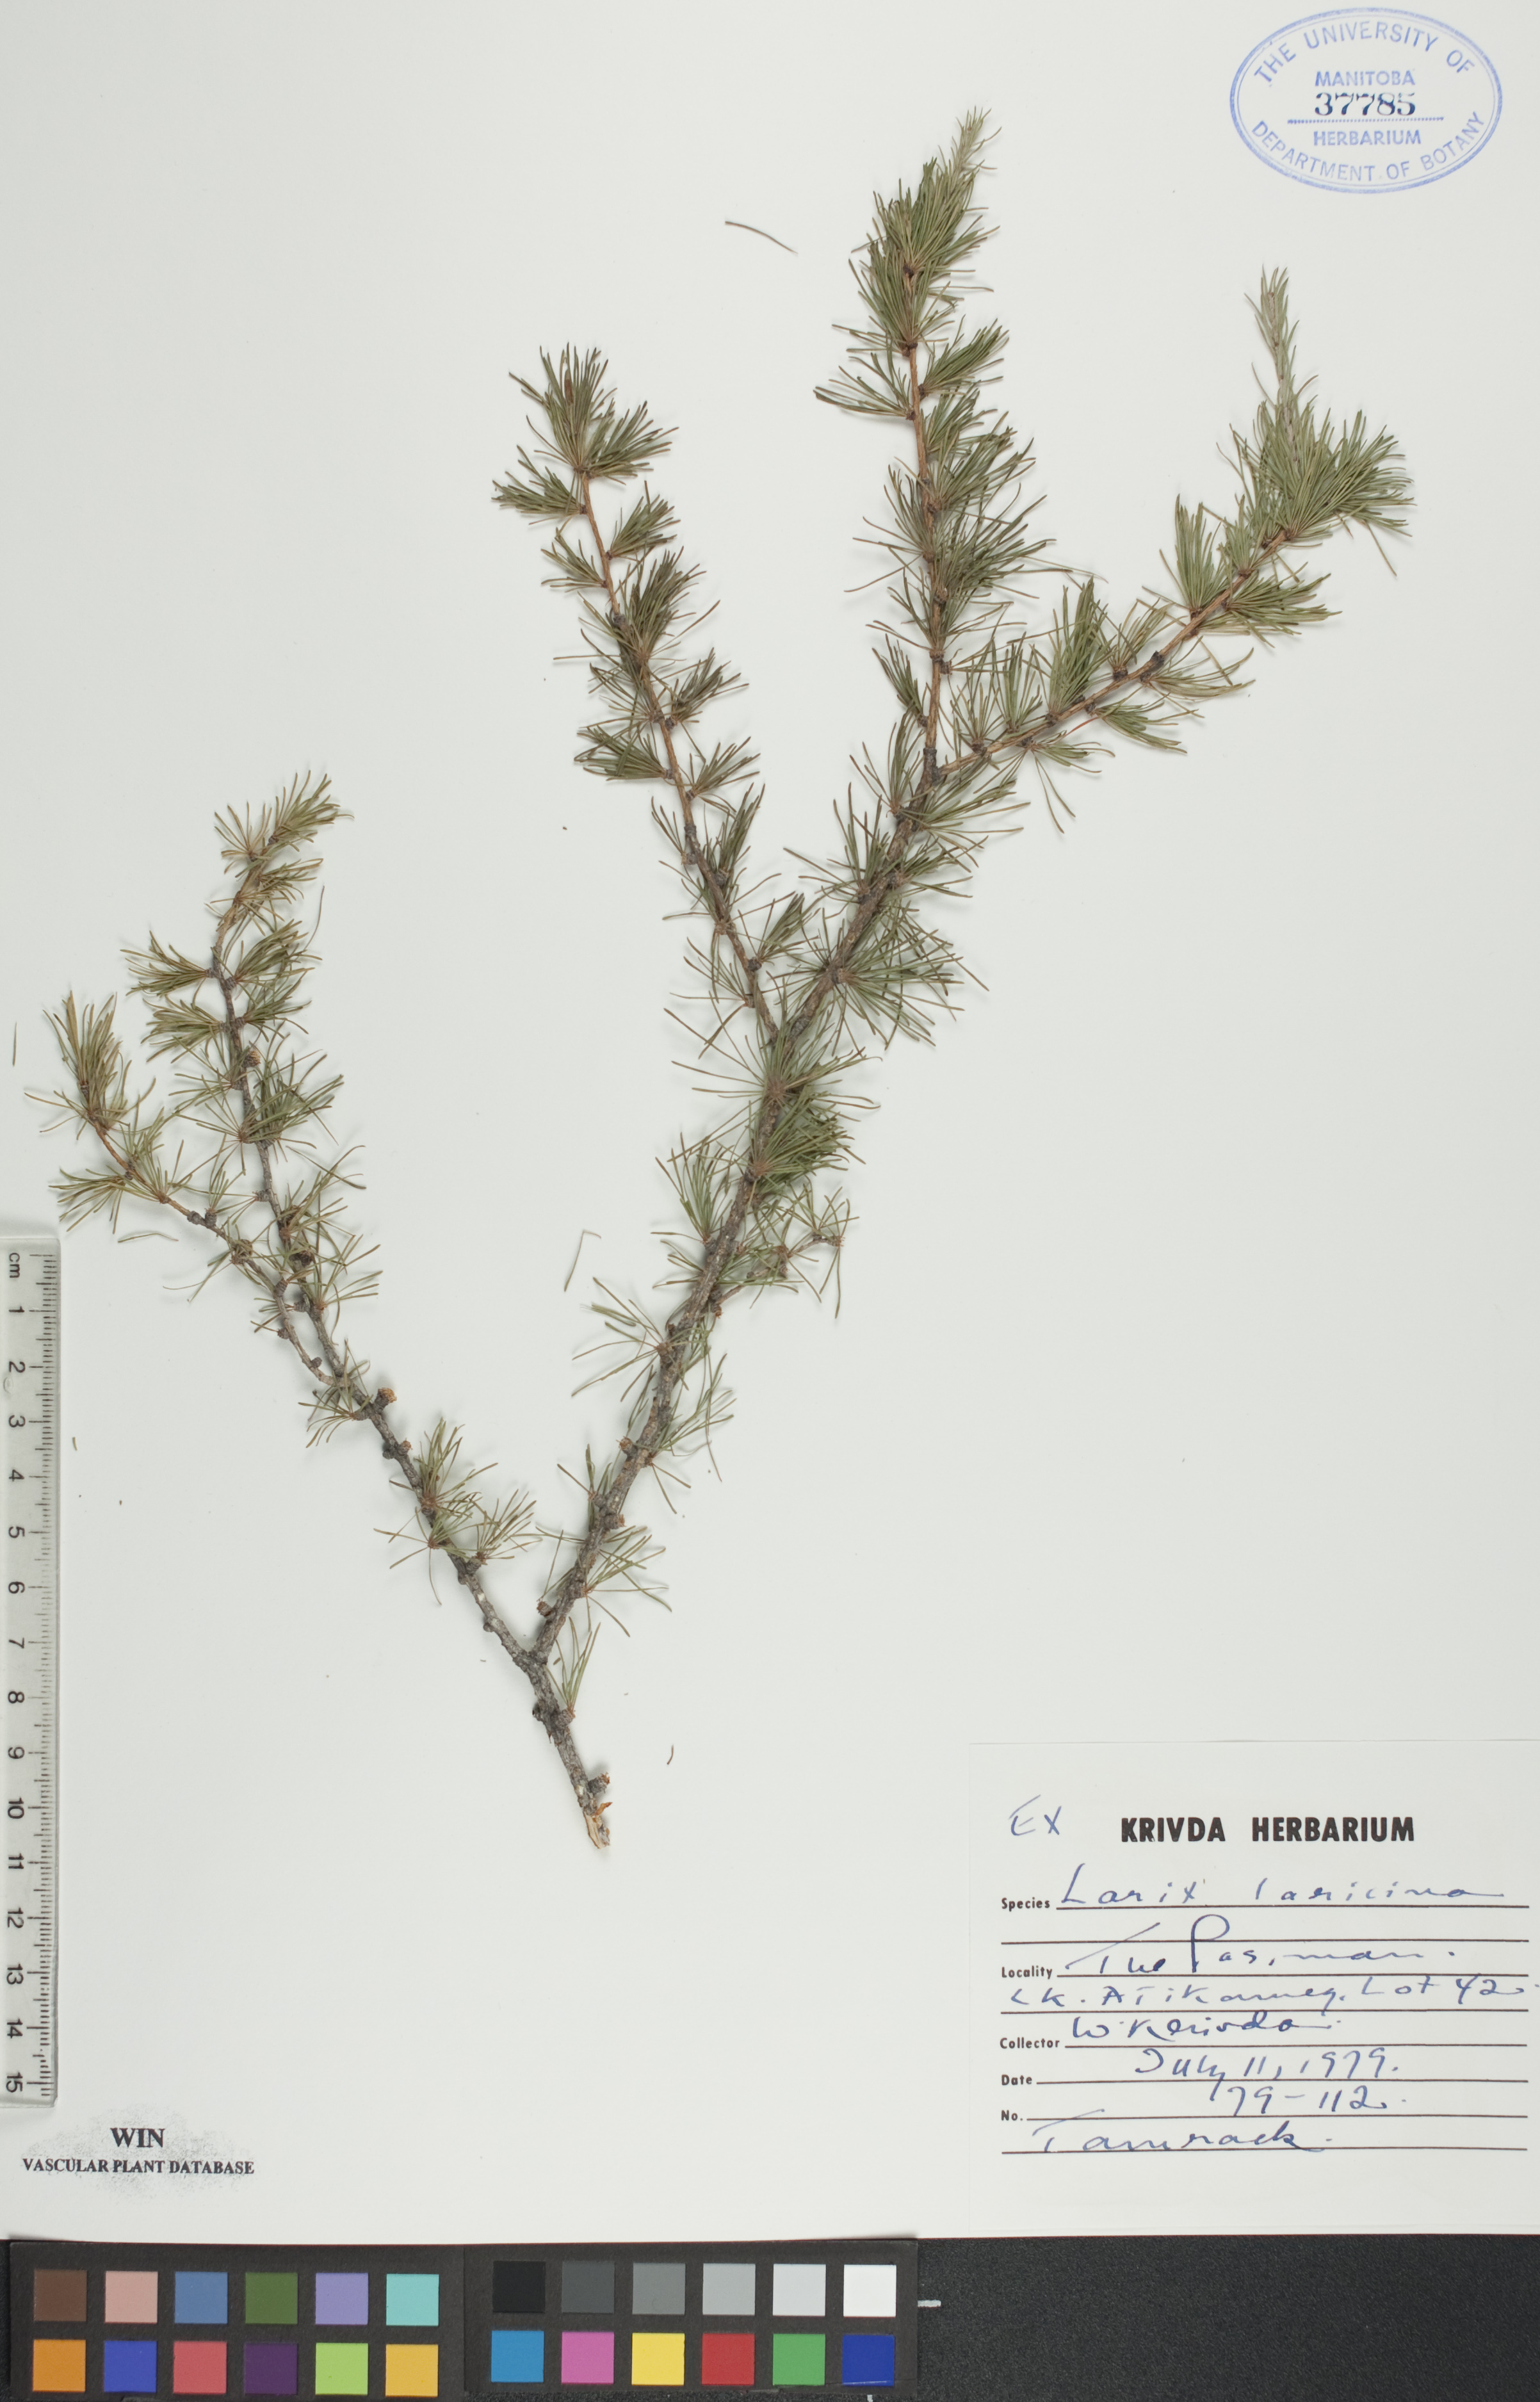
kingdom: Plantae
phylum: Tracheophyta
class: Pinopsida
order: Pinales
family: Pinaceae
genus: Larix
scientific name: Larix laricina
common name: American larch
